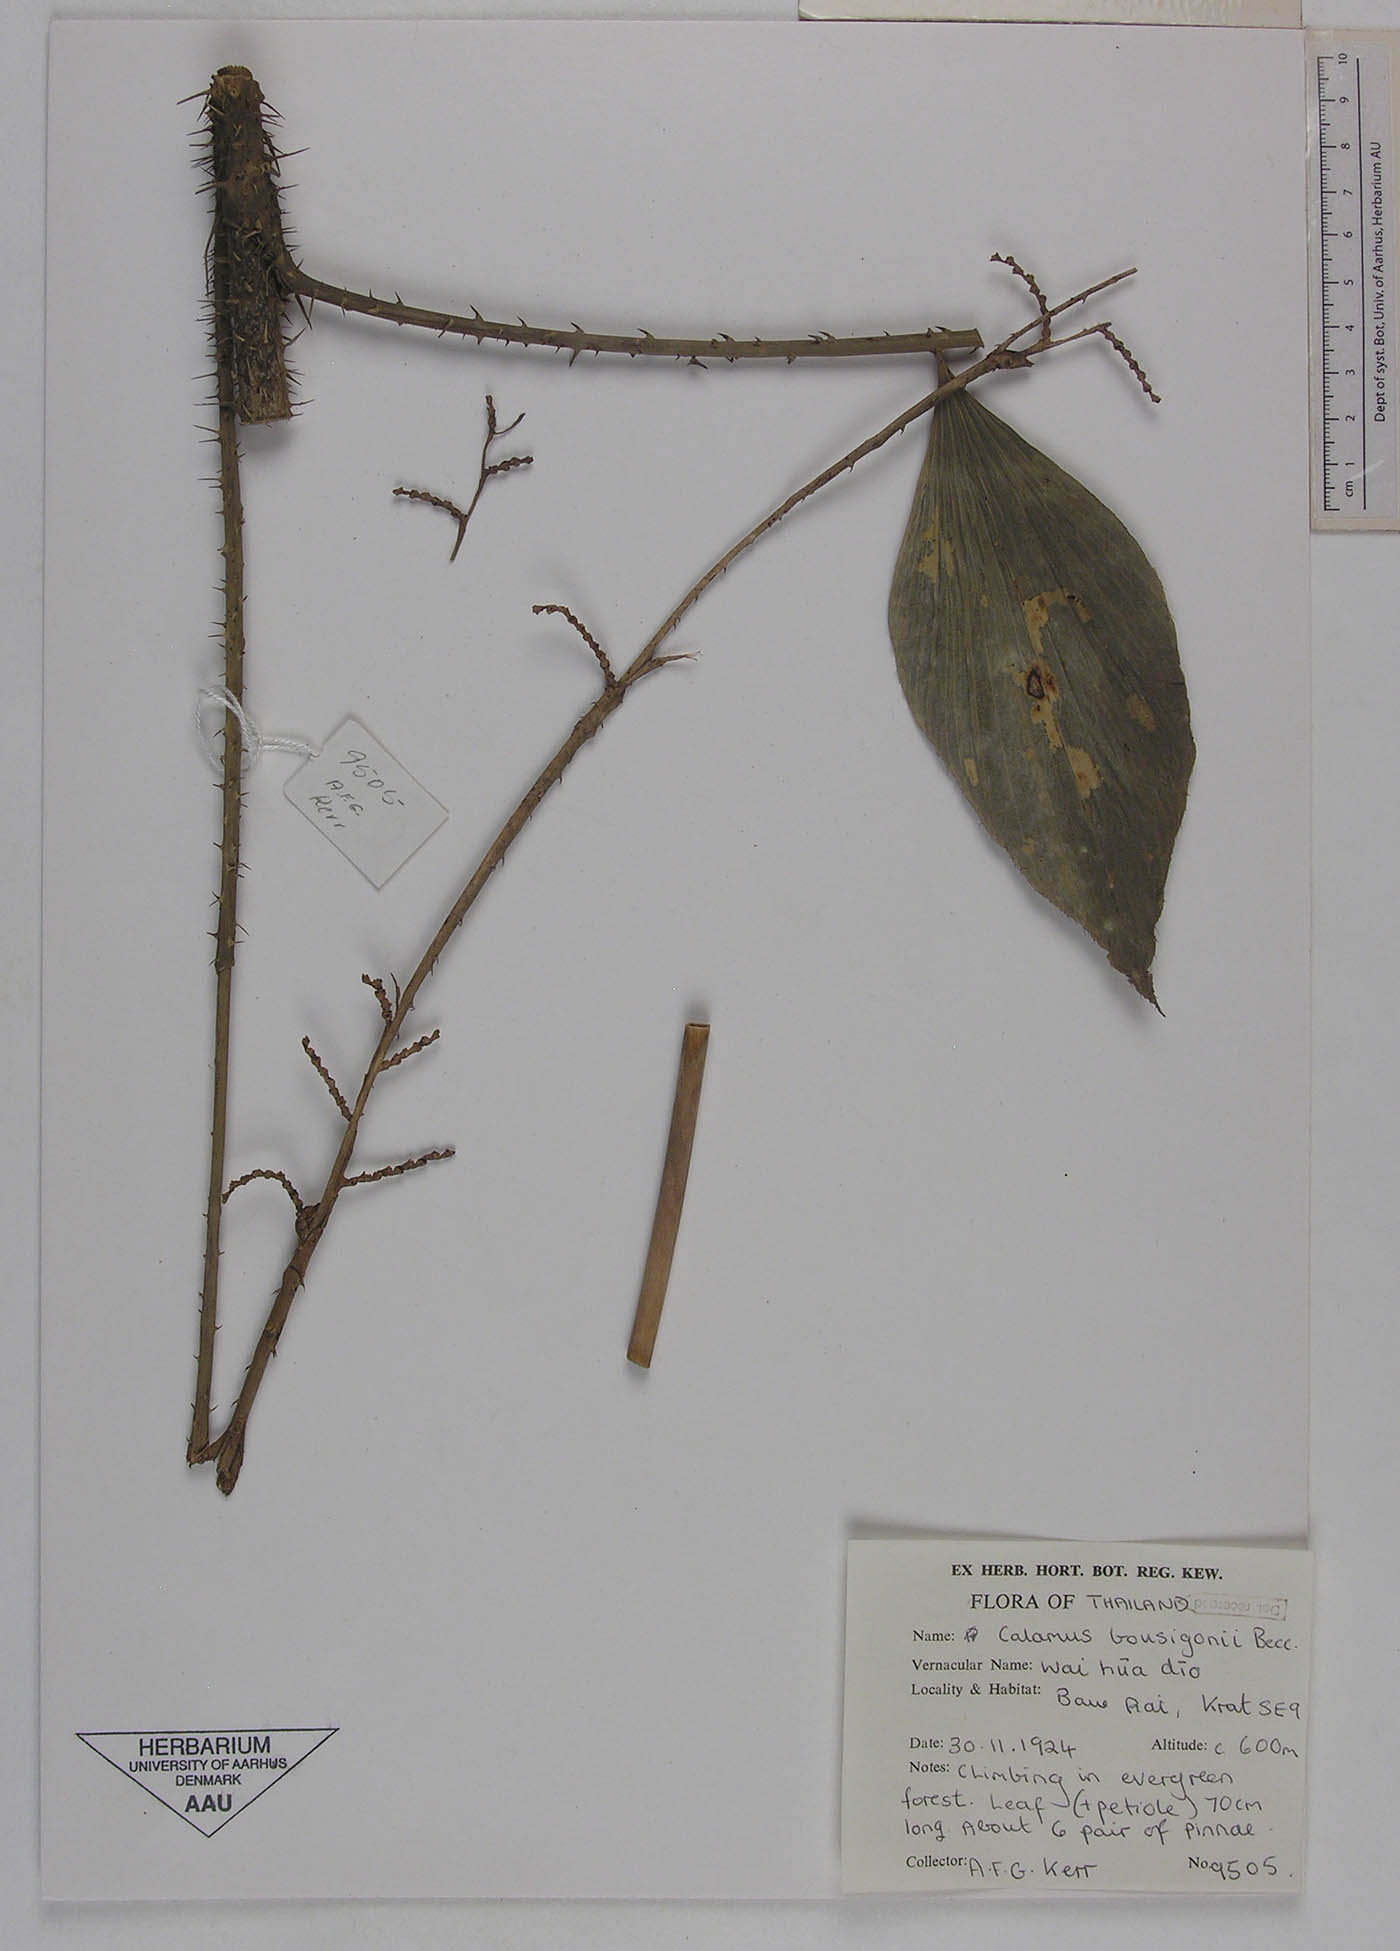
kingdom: Plantae
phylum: Tracheophyta
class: Liliopsida
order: Arecales
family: Arecaceae
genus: Calamus
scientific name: Calamus bousigonii
